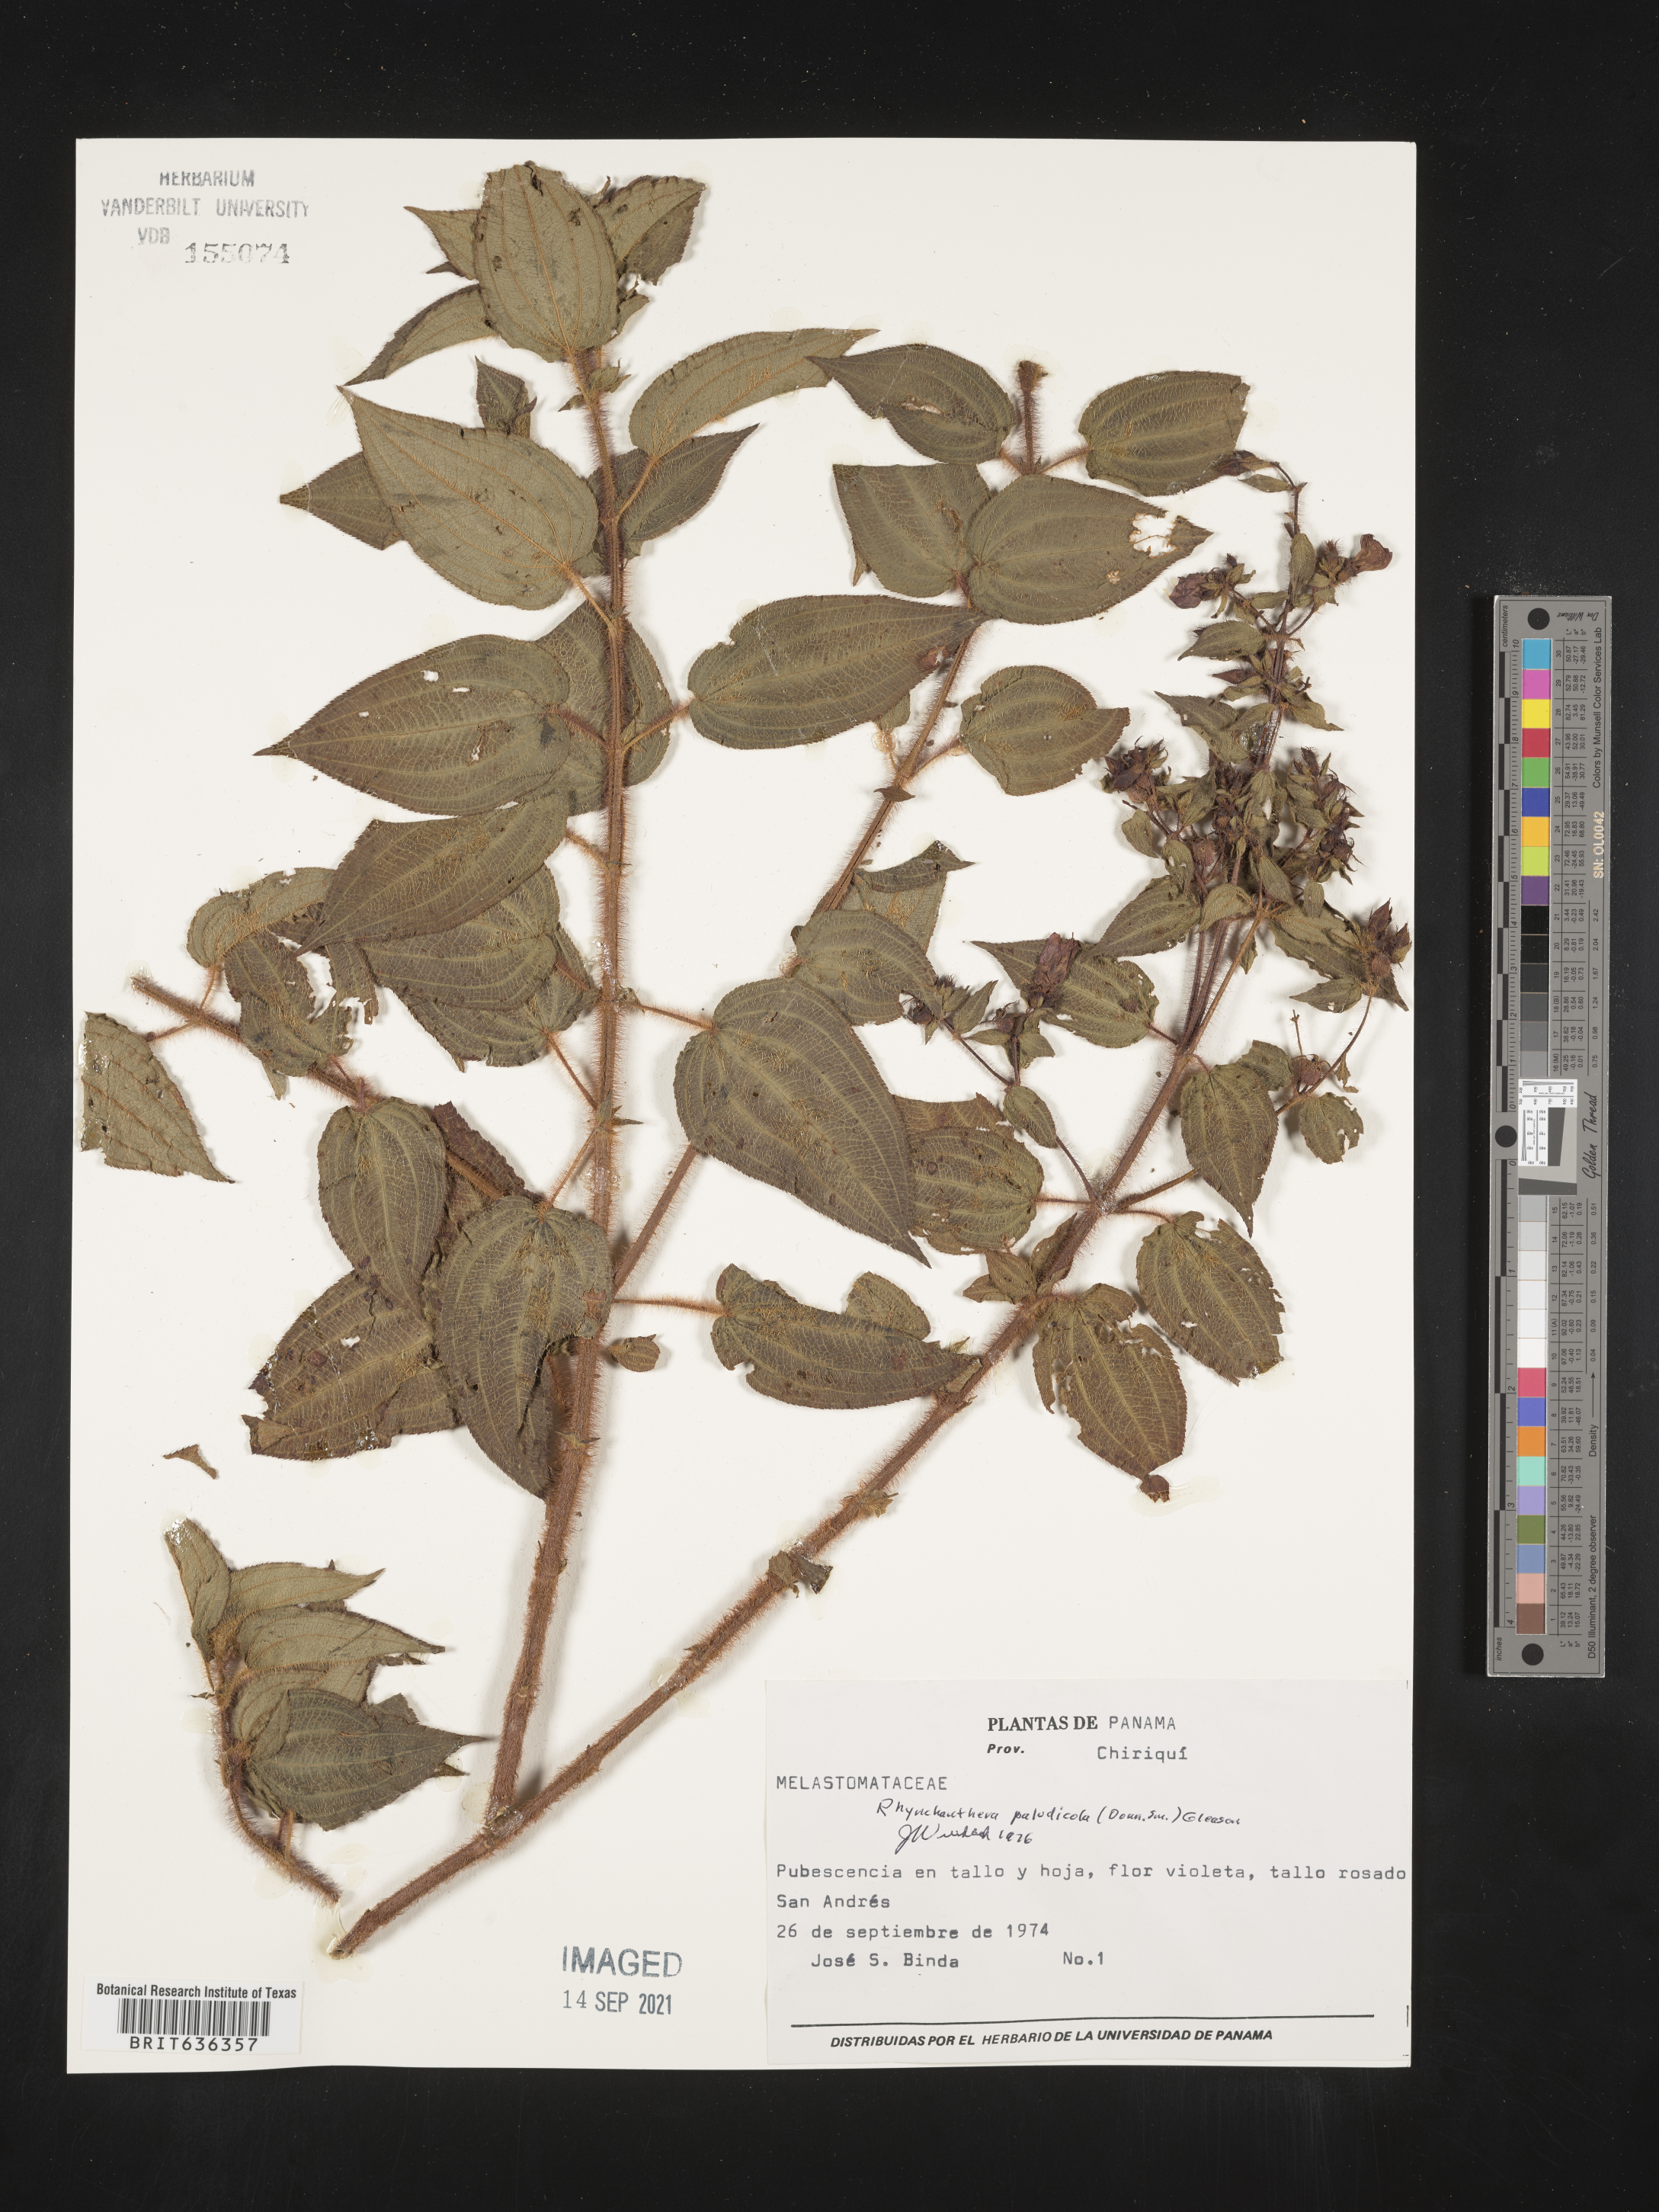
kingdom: Plantae
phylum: Tracheophyta
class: Magnoliopsida
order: Myrtales
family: Melastomataceae
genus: Rhynchanthera
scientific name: Rhynchanthera
